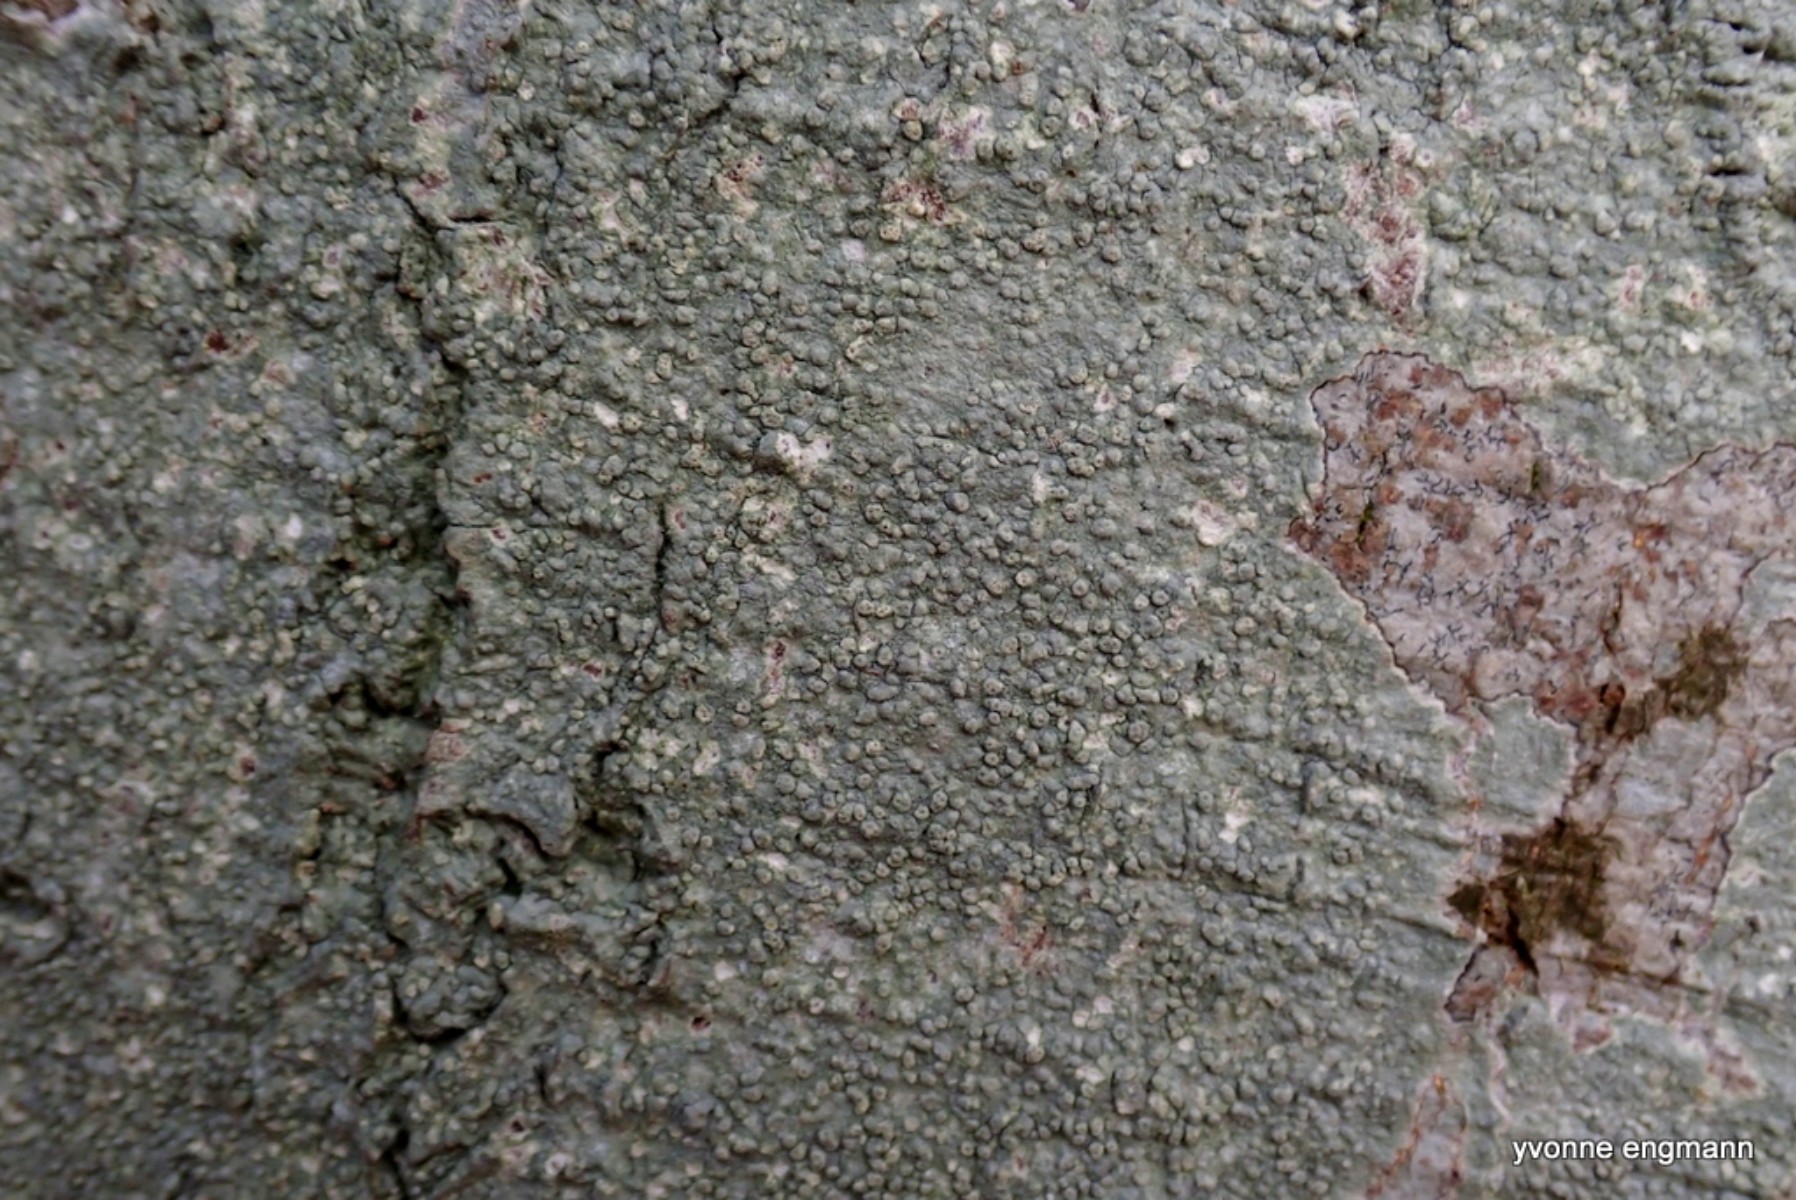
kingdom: Fungi
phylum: Ascomycota
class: Lecanoromycetes
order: Pertusariales
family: Pertusariaceae
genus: Pertusaria
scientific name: Pertusaria pertusa
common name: almindelig prikvortelav
